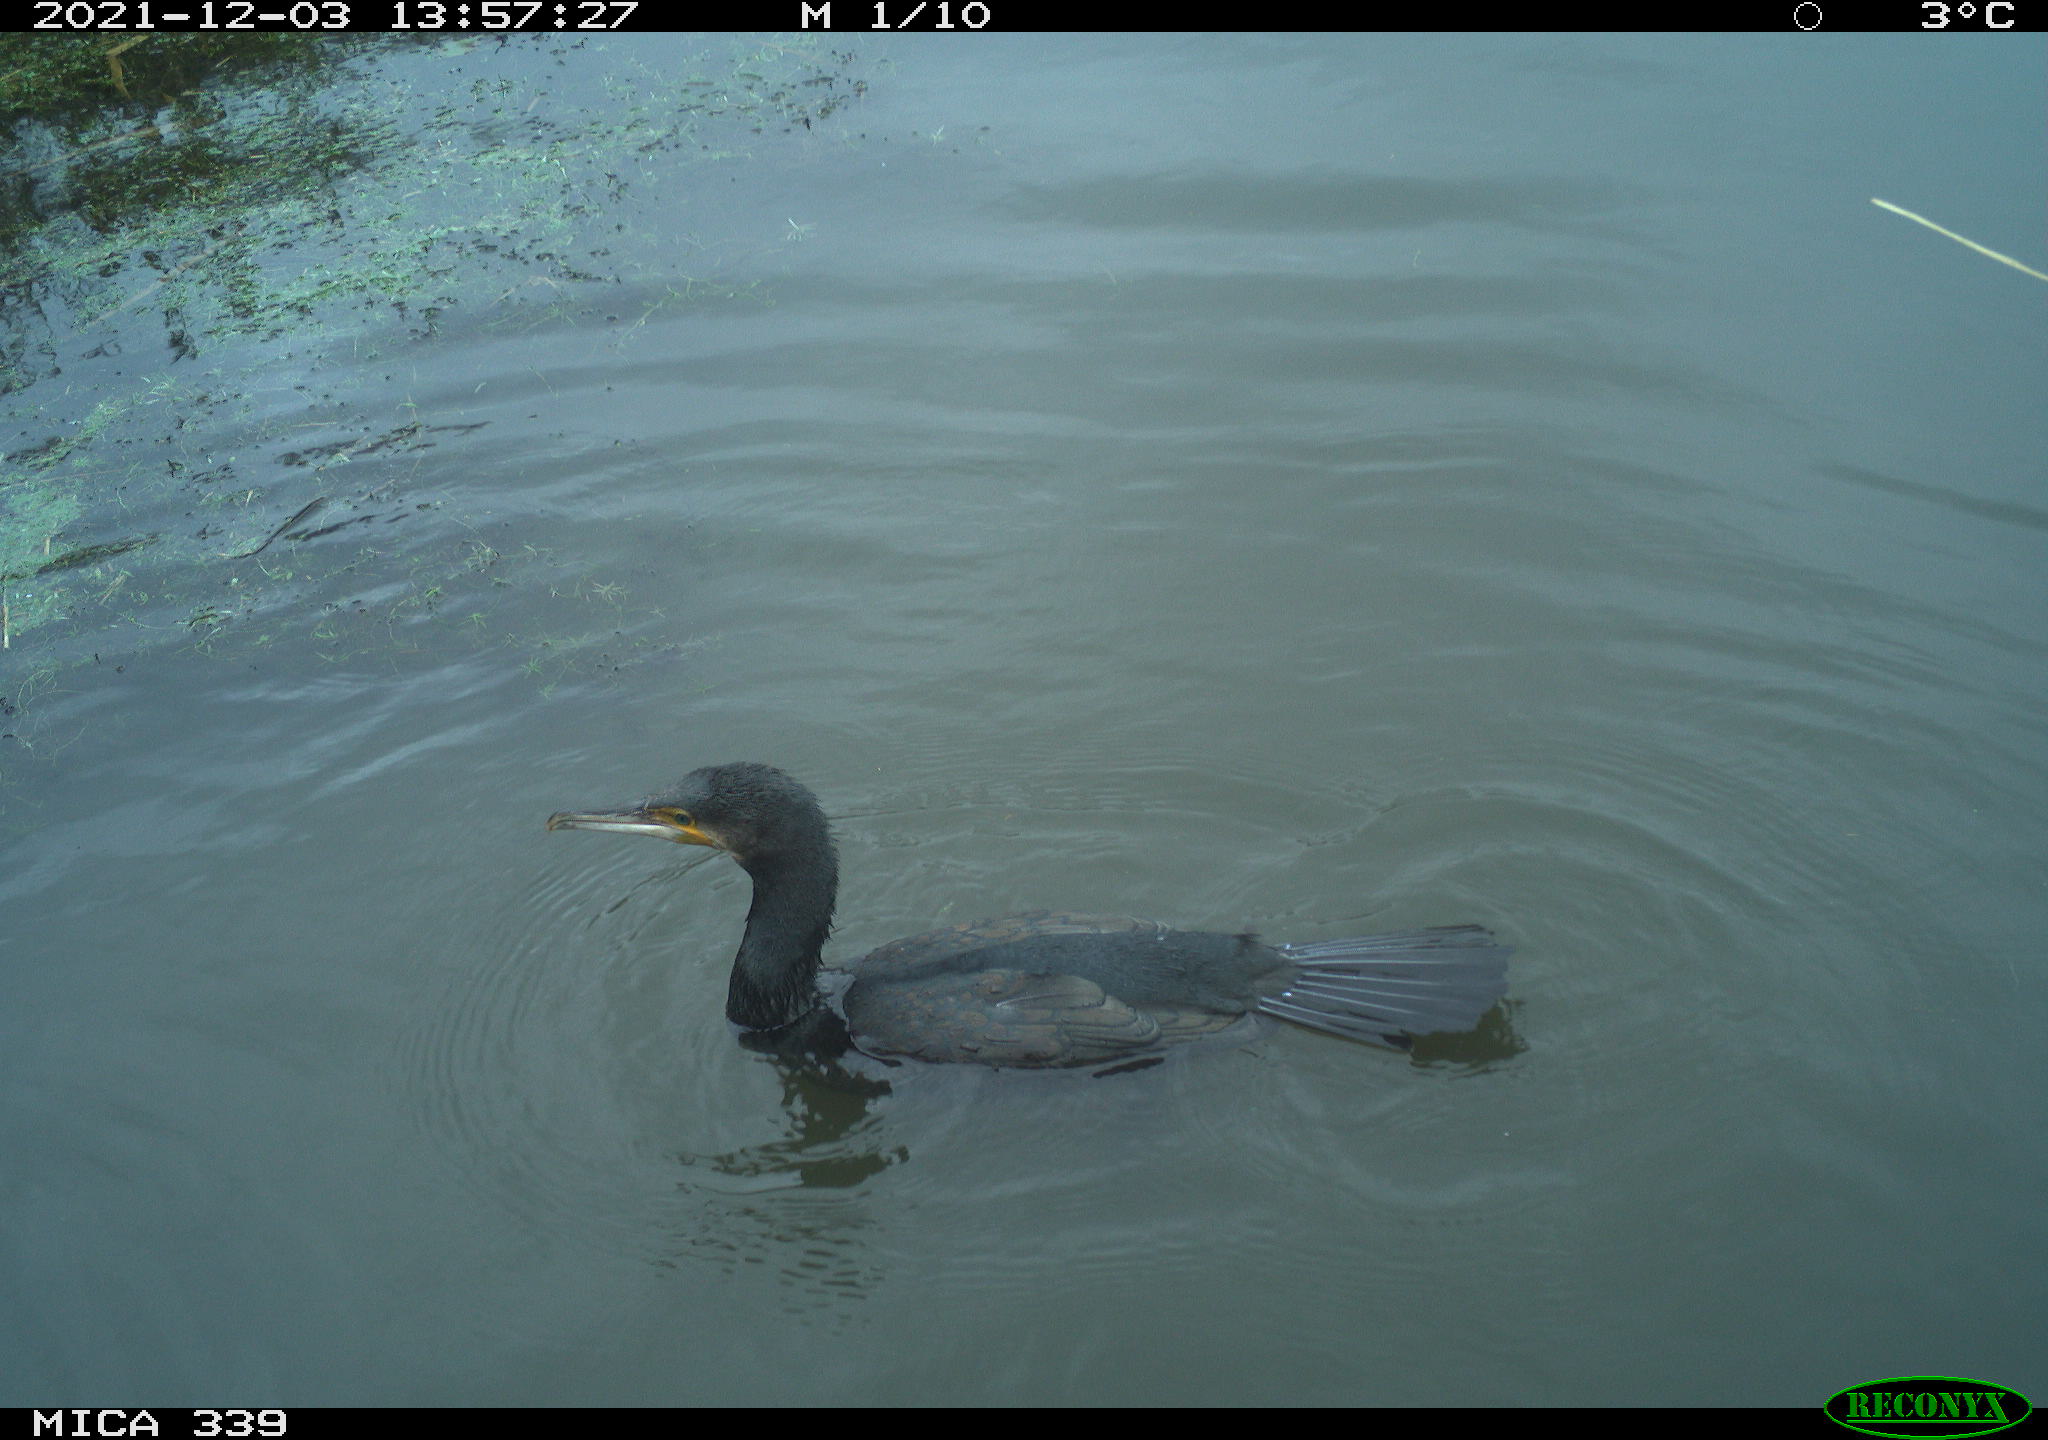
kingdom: Animalia
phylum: Chordata
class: Aves
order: Suliformes
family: Phalacrocoracidae
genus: Phalacrocorax
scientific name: Phalacrocorax carbo
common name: Great cormorant
